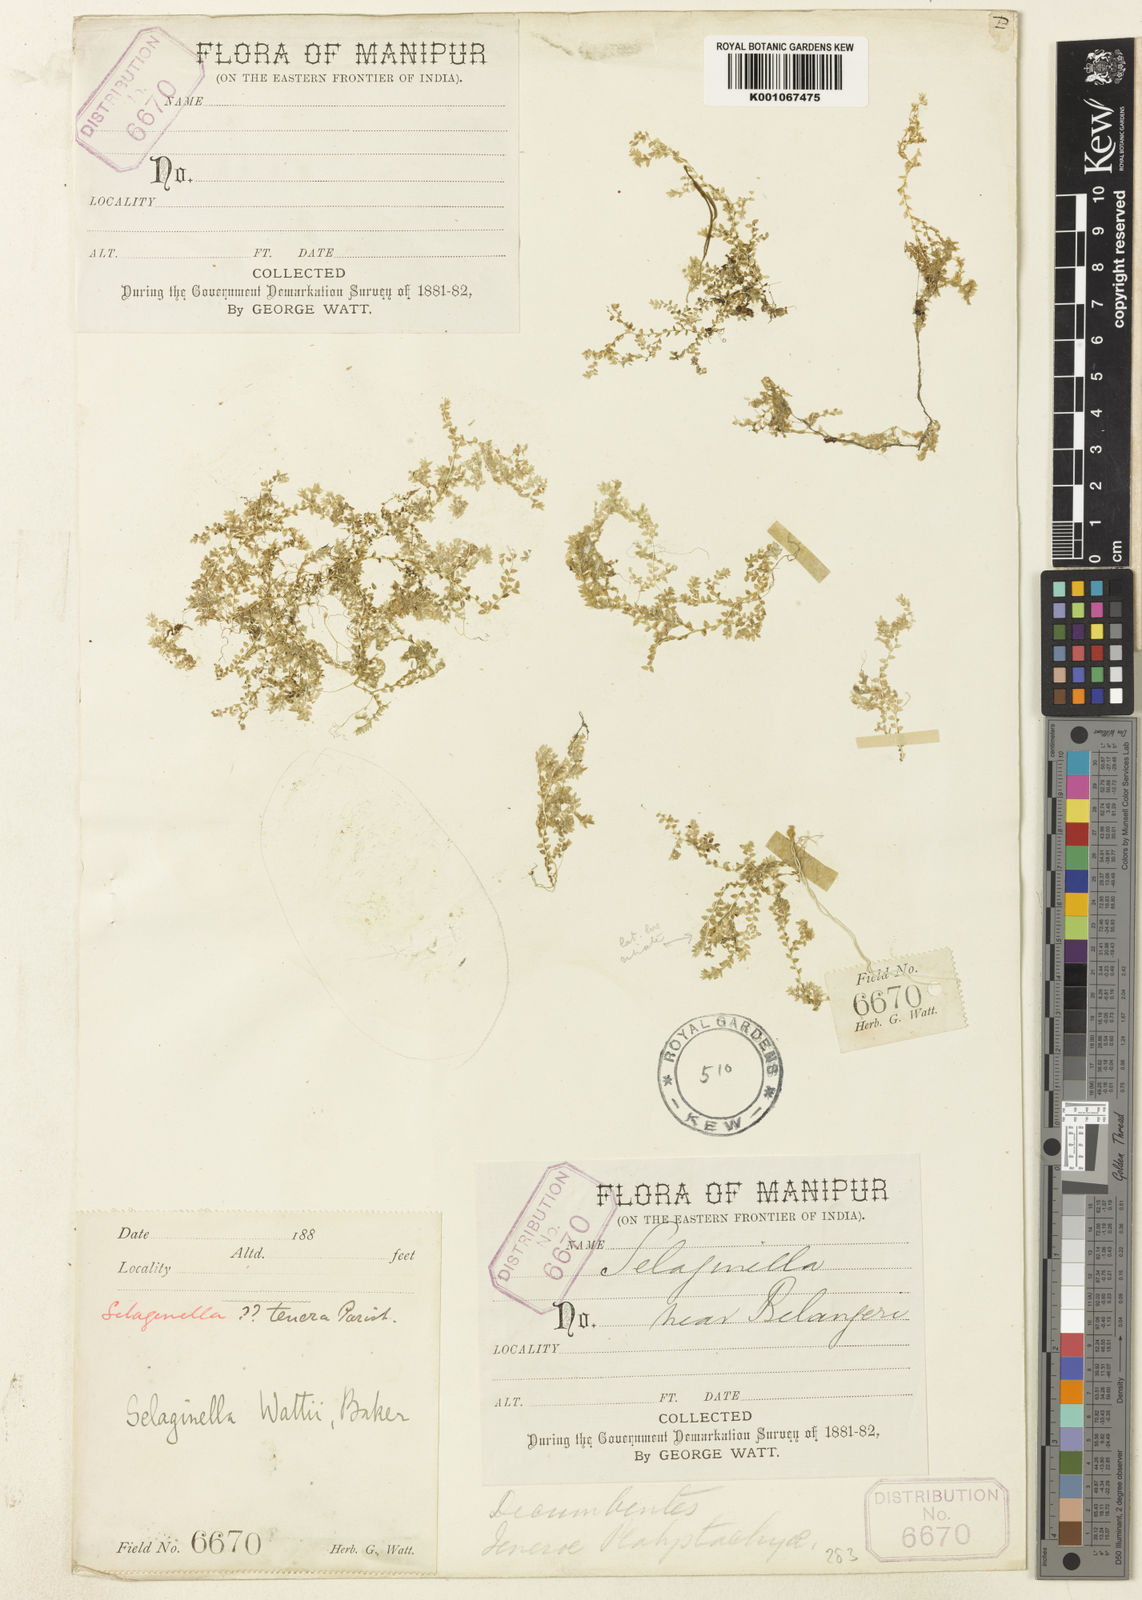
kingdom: Plantae
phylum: Tracheophyta
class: Lycopodiopsida
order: Selaginellales
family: Selaginellaceae
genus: Selaginella
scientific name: Selaginella wattii
